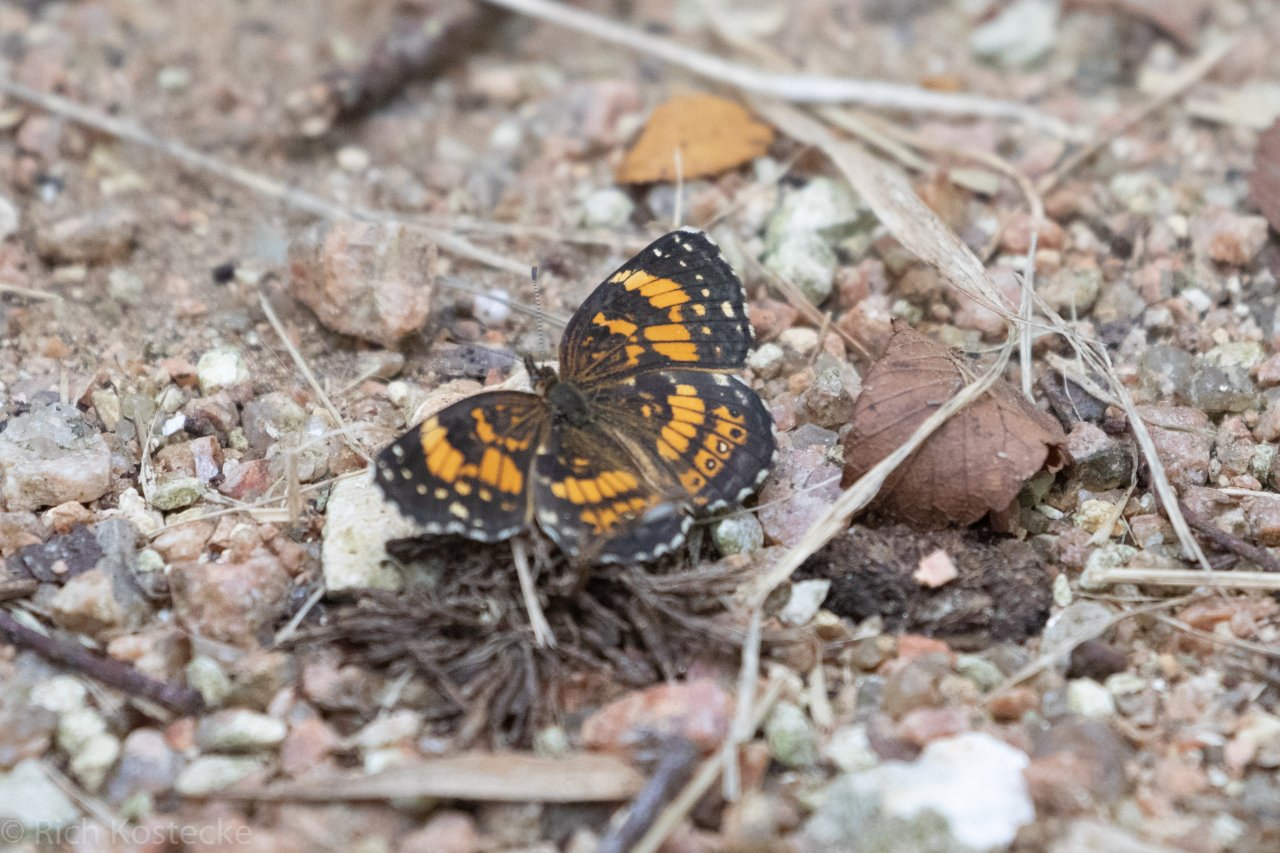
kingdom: Animalia
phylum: Arthropoda
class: Insecta
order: Lepidoptera
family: Nymphalidae
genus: Chlosyne
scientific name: Chlosyne nycteis
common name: Silvery Checkerspot
